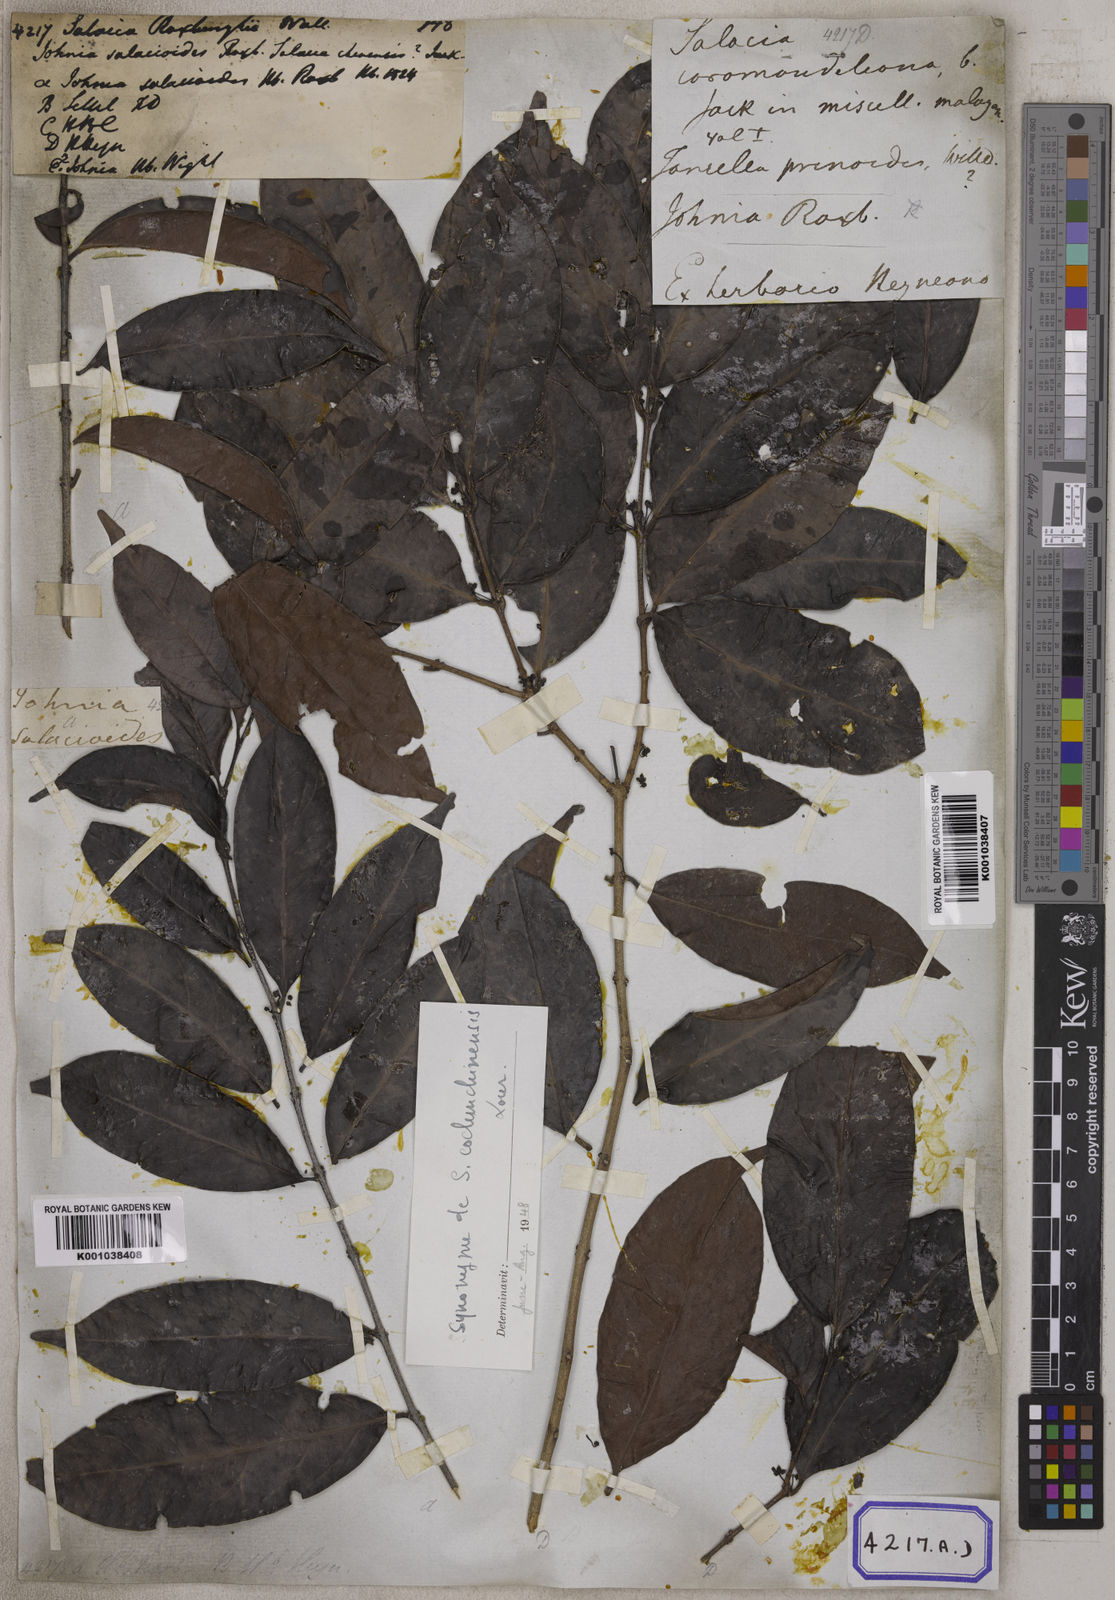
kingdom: Plantae
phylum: Tracheophyta
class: Magnoliopsida
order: Celastrales
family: Celastraceae
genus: Salacia
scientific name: Salacia
